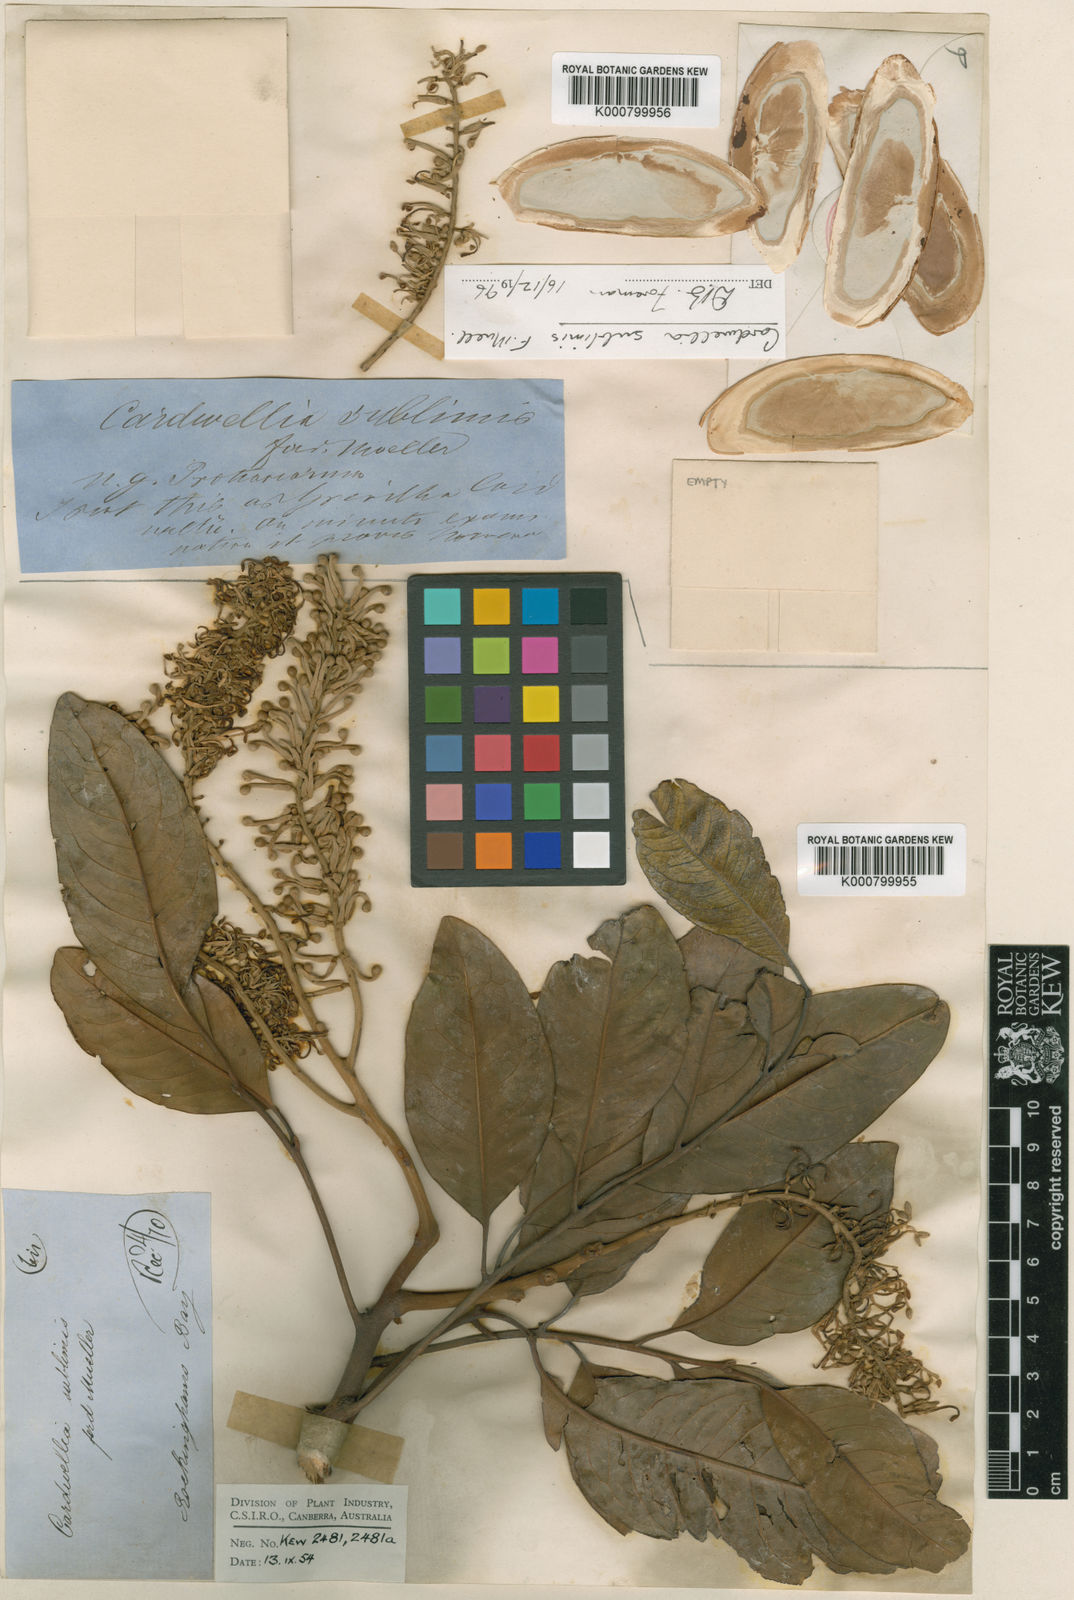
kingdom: Plantae
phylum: Tracheophyta
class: Magnoliopsida
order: Proteales
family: Proteaceae
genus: Cardwellia
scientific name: Cardwellia sublimis
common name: Bull oak
